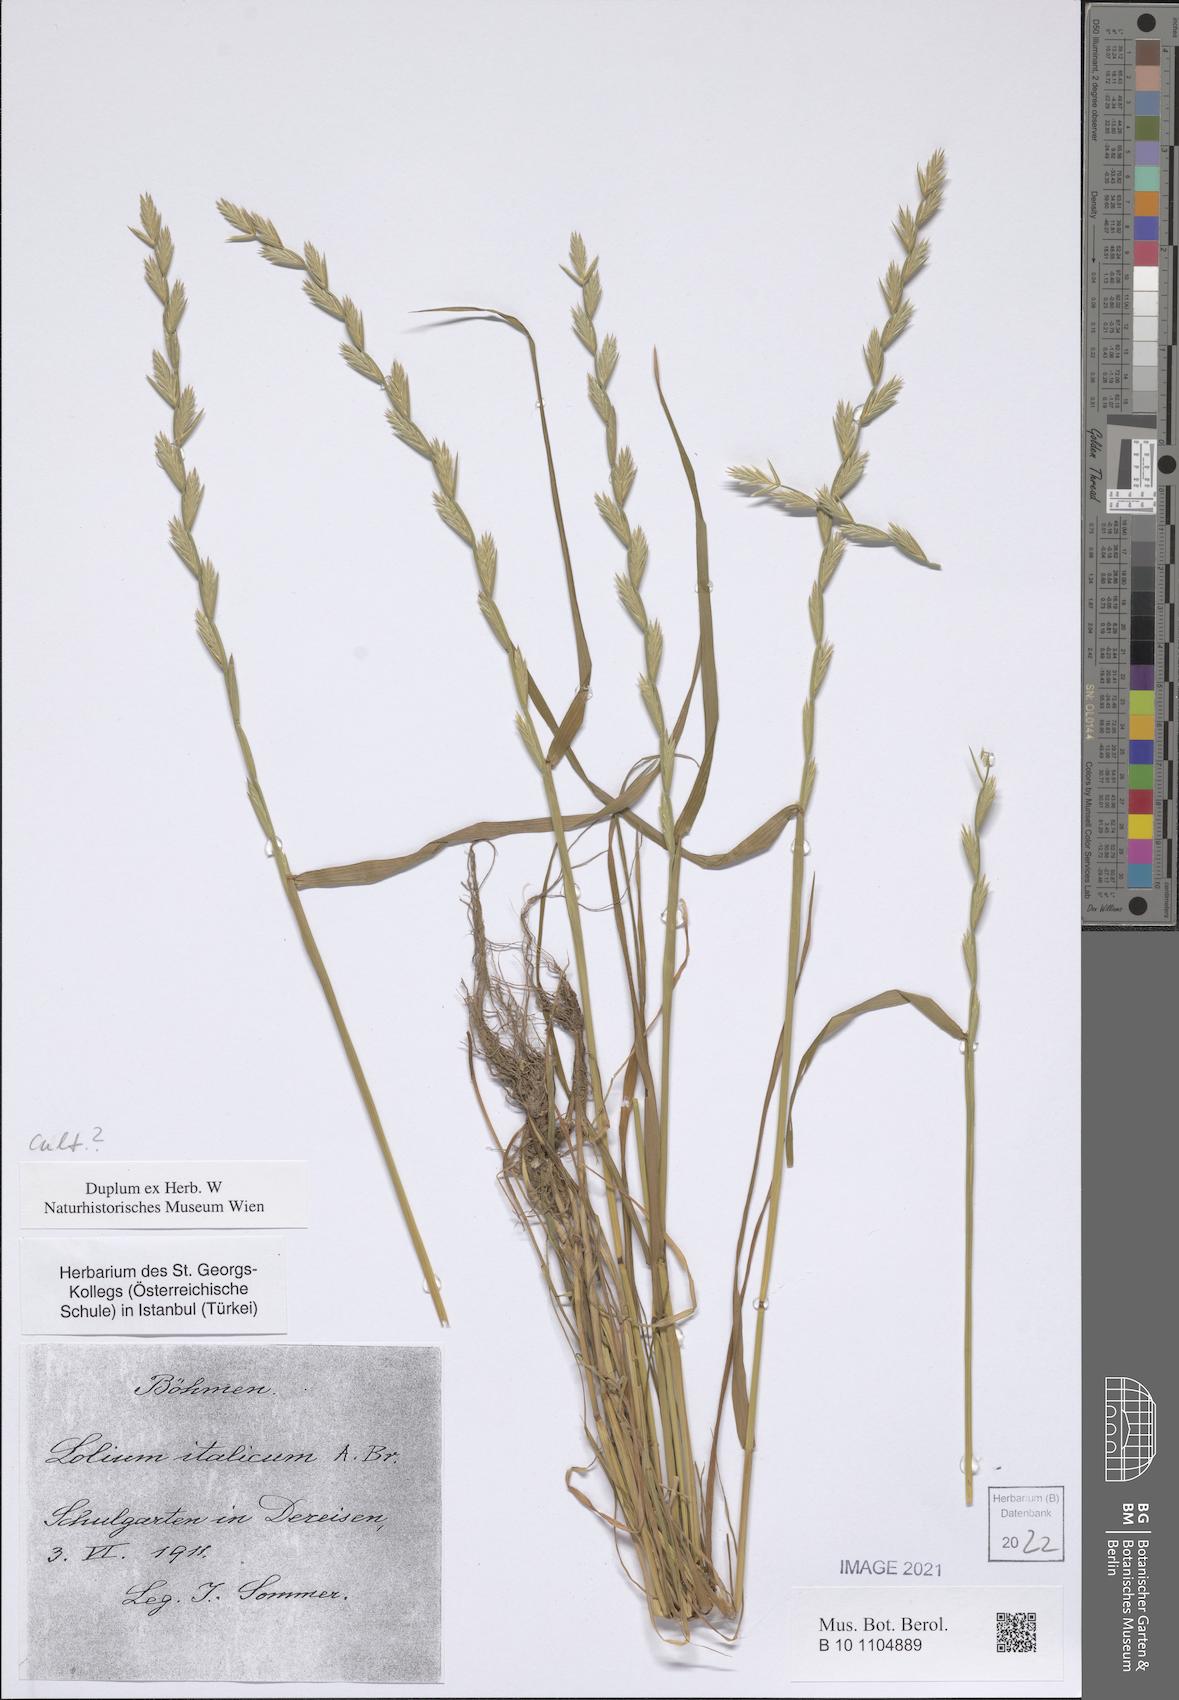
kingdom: Plantae
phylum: Tracheophyta
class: Liliopsida
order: Poales
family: Poaceae
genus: Lolium
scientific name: Lolium multiflorum
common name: Annual ryegrass
